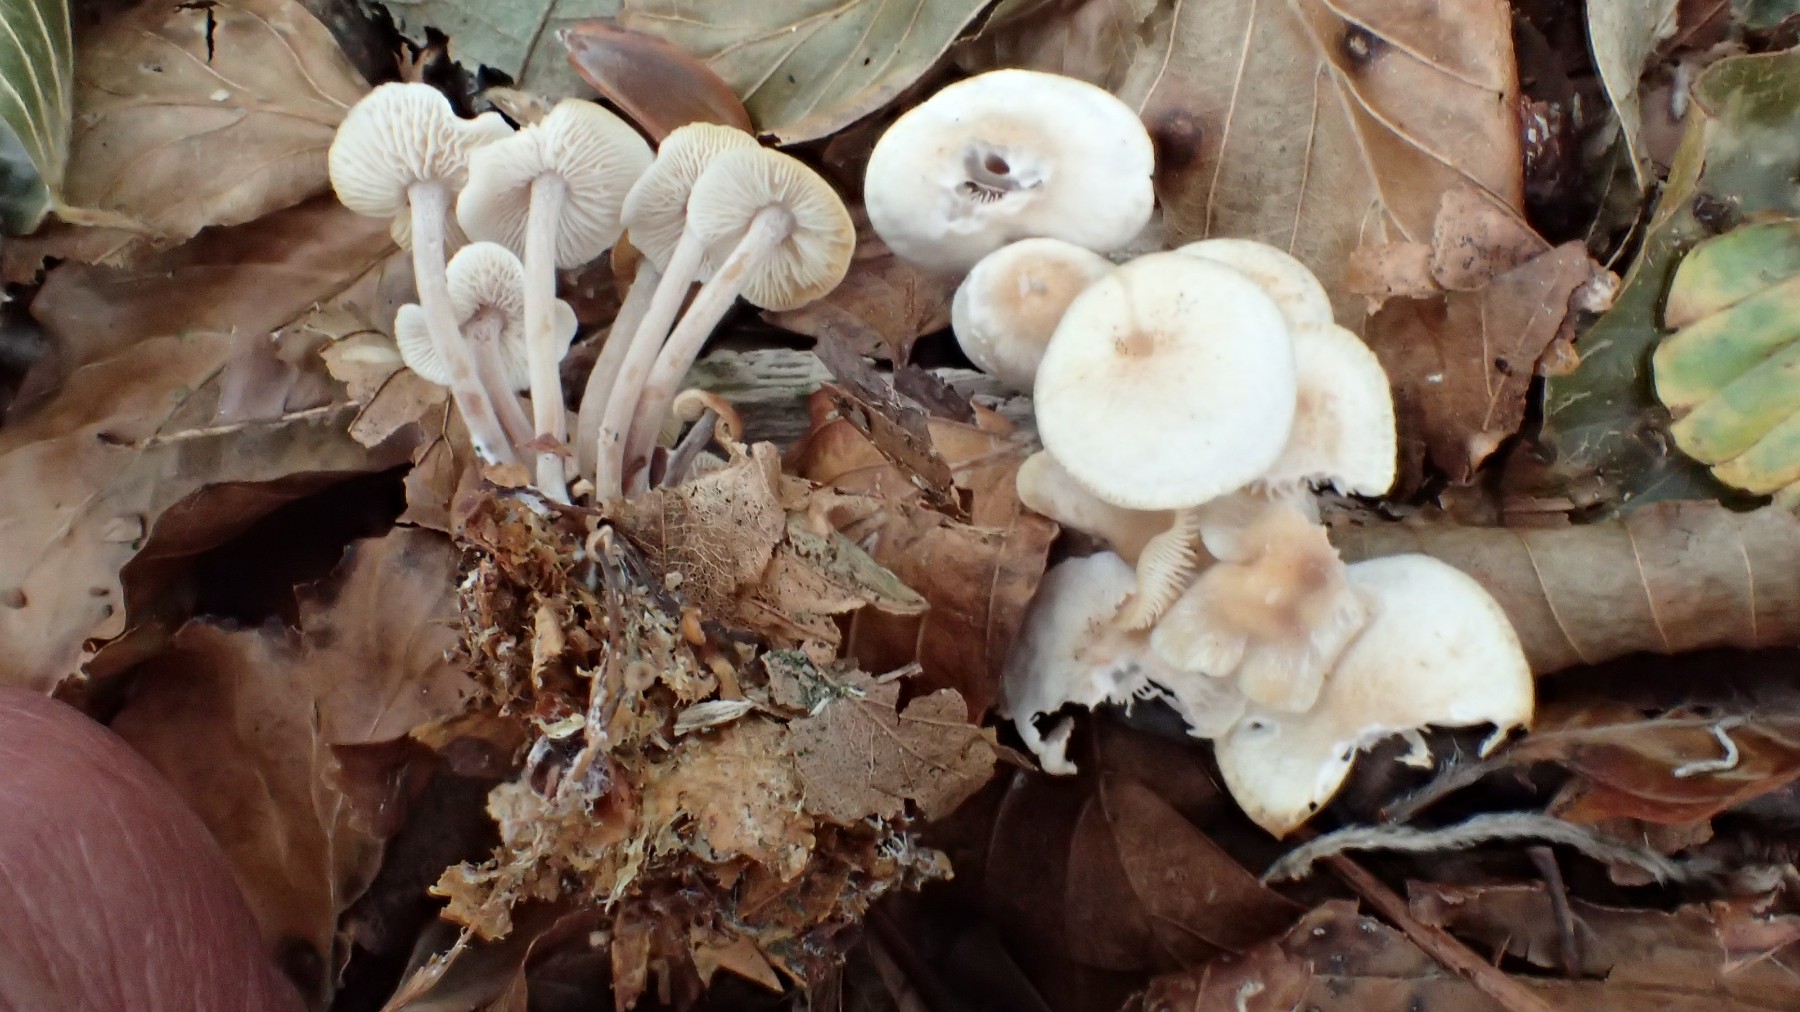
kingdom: Fungi
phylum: Basidiomycota
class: Agaricomycetes
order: Agaricales
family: Omphalotaceae
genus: Collybiopsis
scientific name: Collybiopsis confluens
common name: knippe-fladhat
